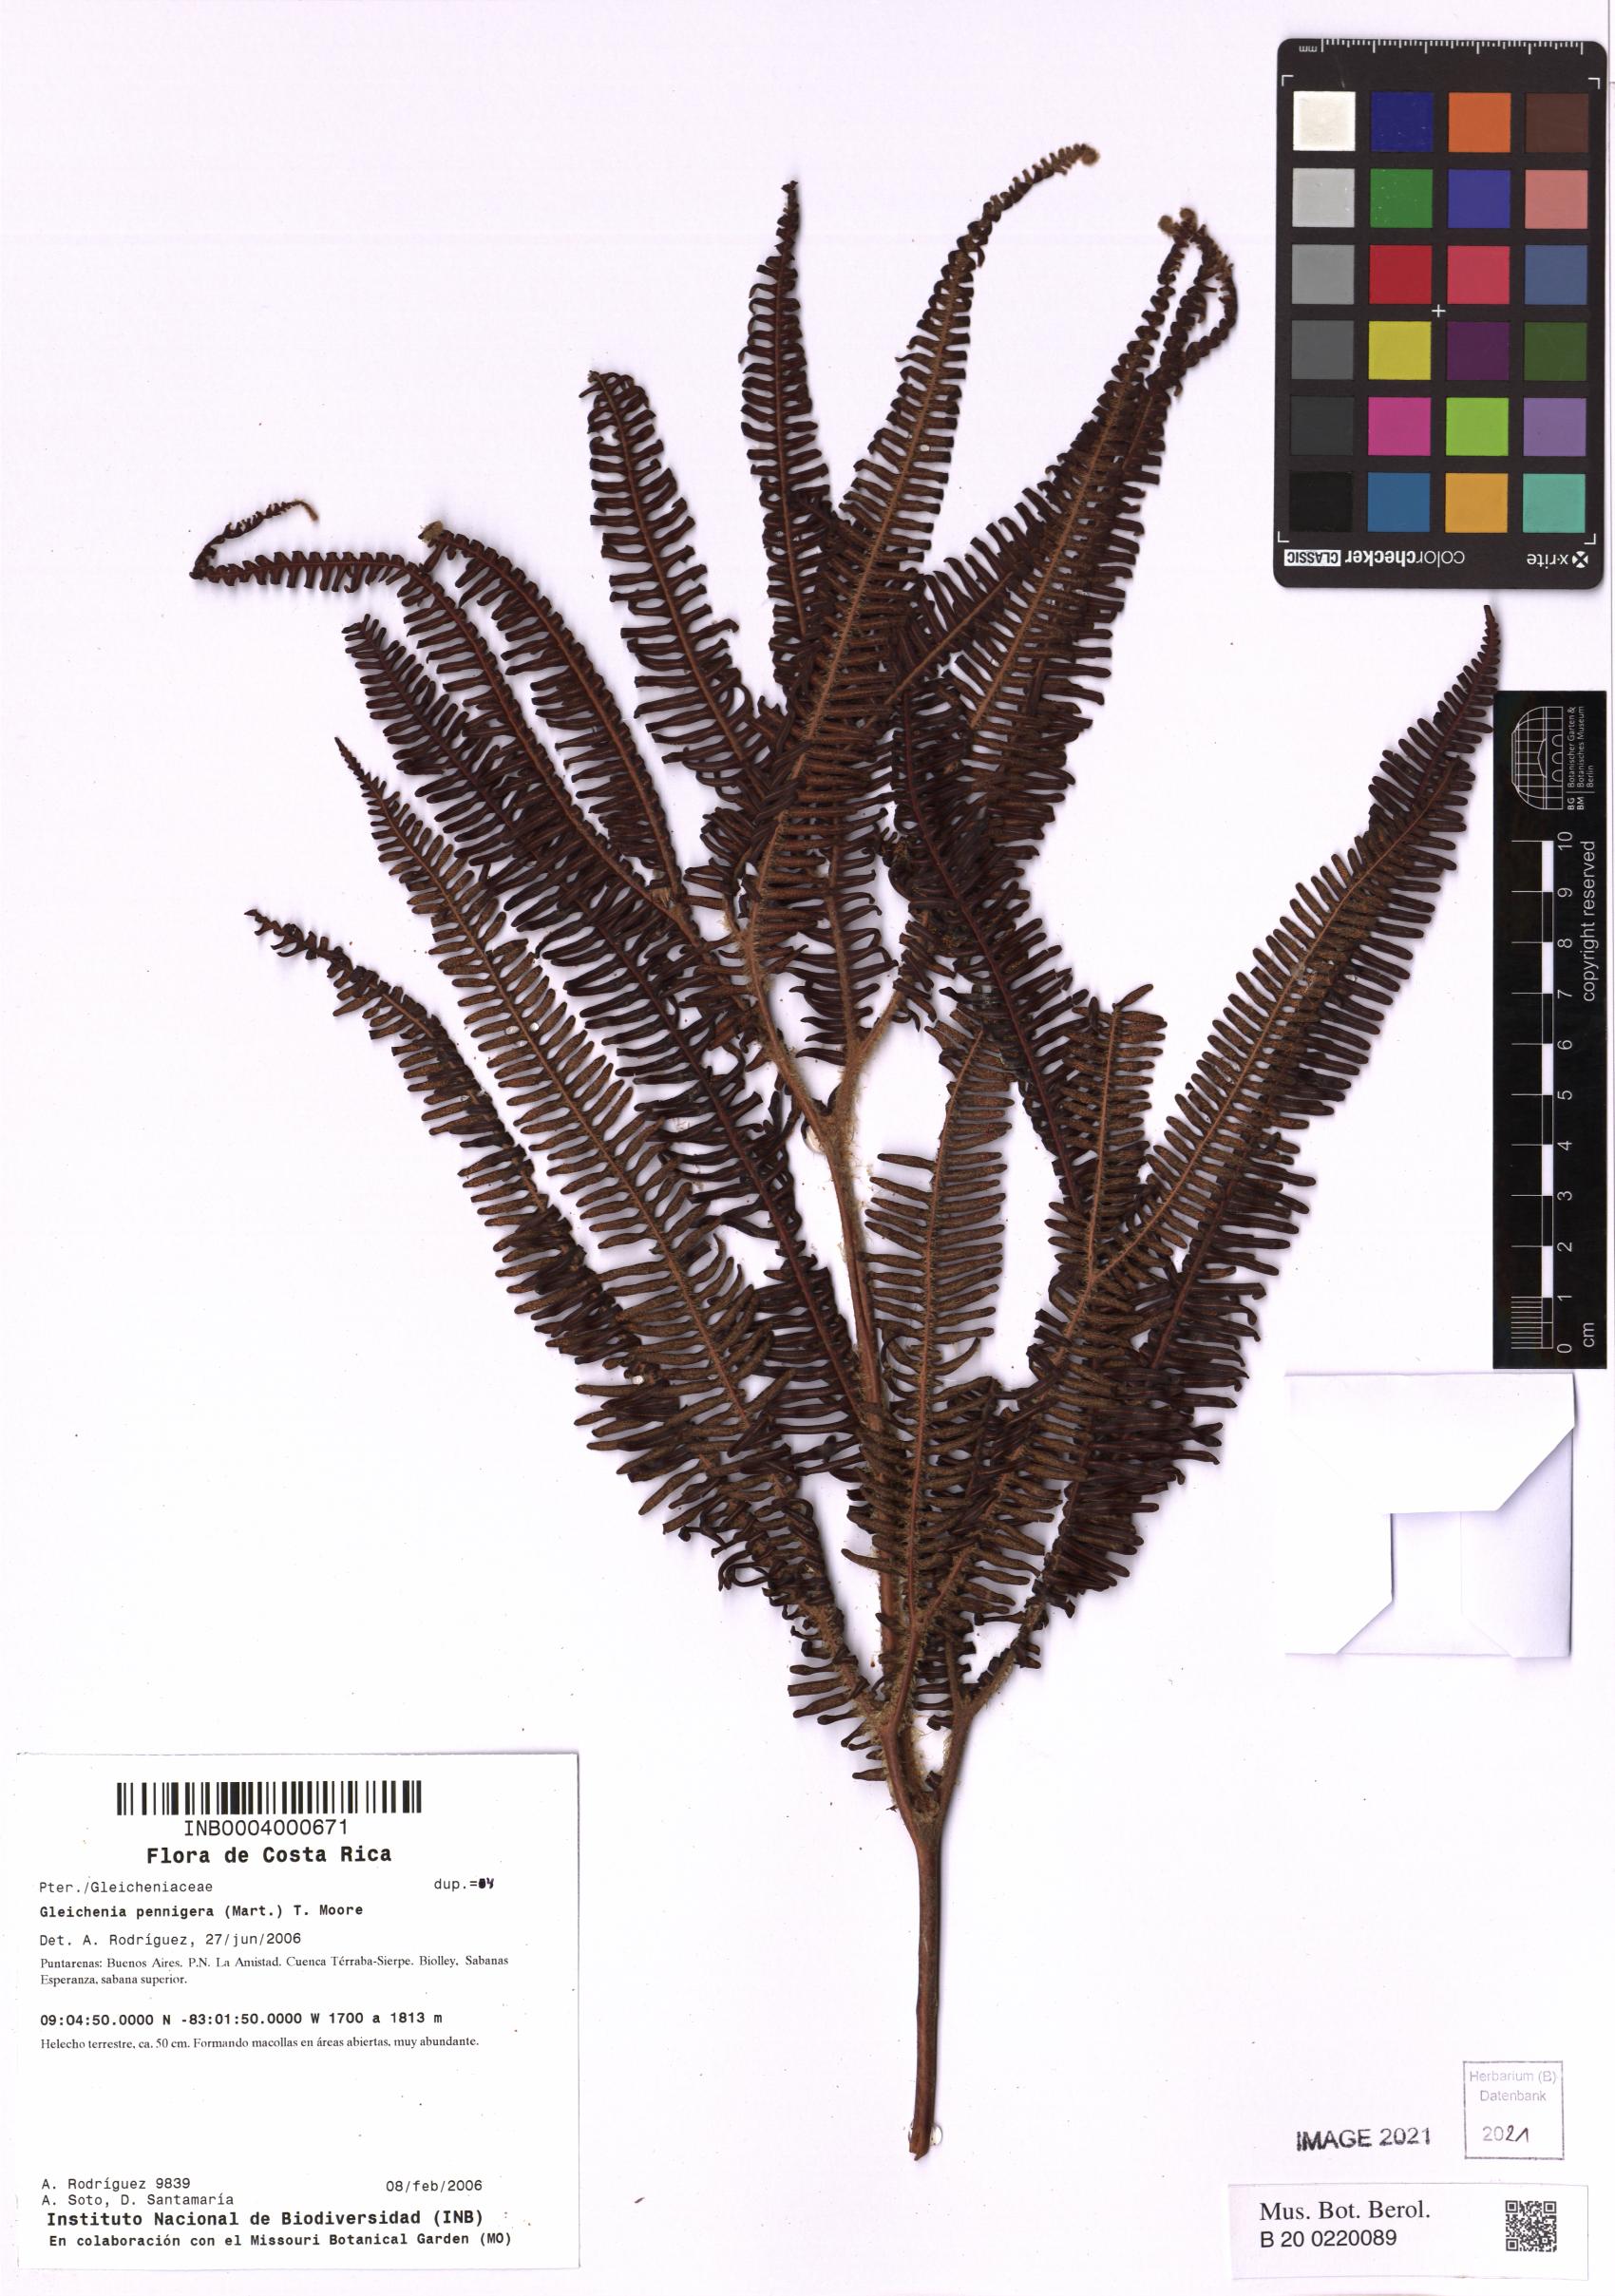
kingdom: Plantae
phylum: Tracheophyta
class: Polypodiopsida
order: Gleicheniales
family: Gleicheniaceae
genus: Sticherus
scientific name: Sticherus penniger
